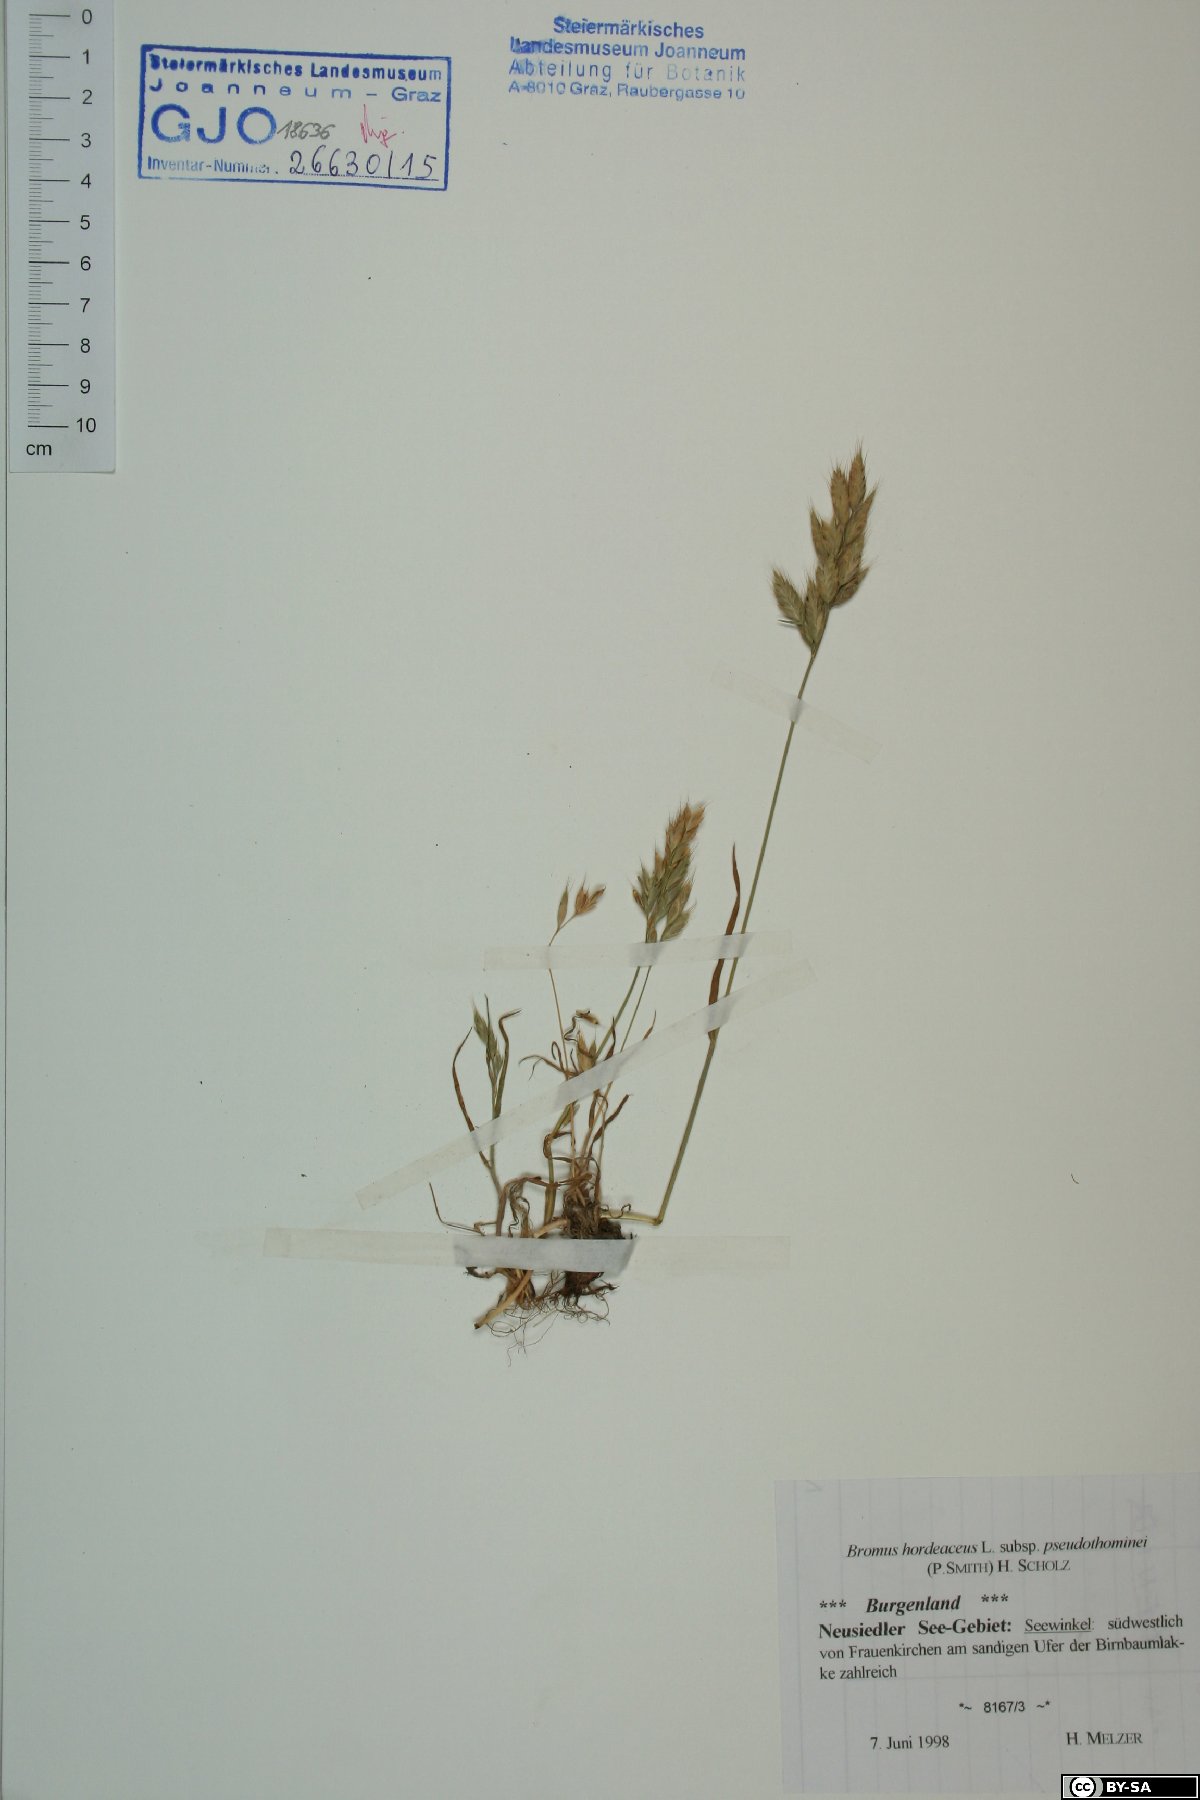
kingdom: Plantae
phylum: Tracheophyta
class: Liliopsida
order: Poales
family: Poaceae
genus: Bromus
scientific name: Bromus ferronii
